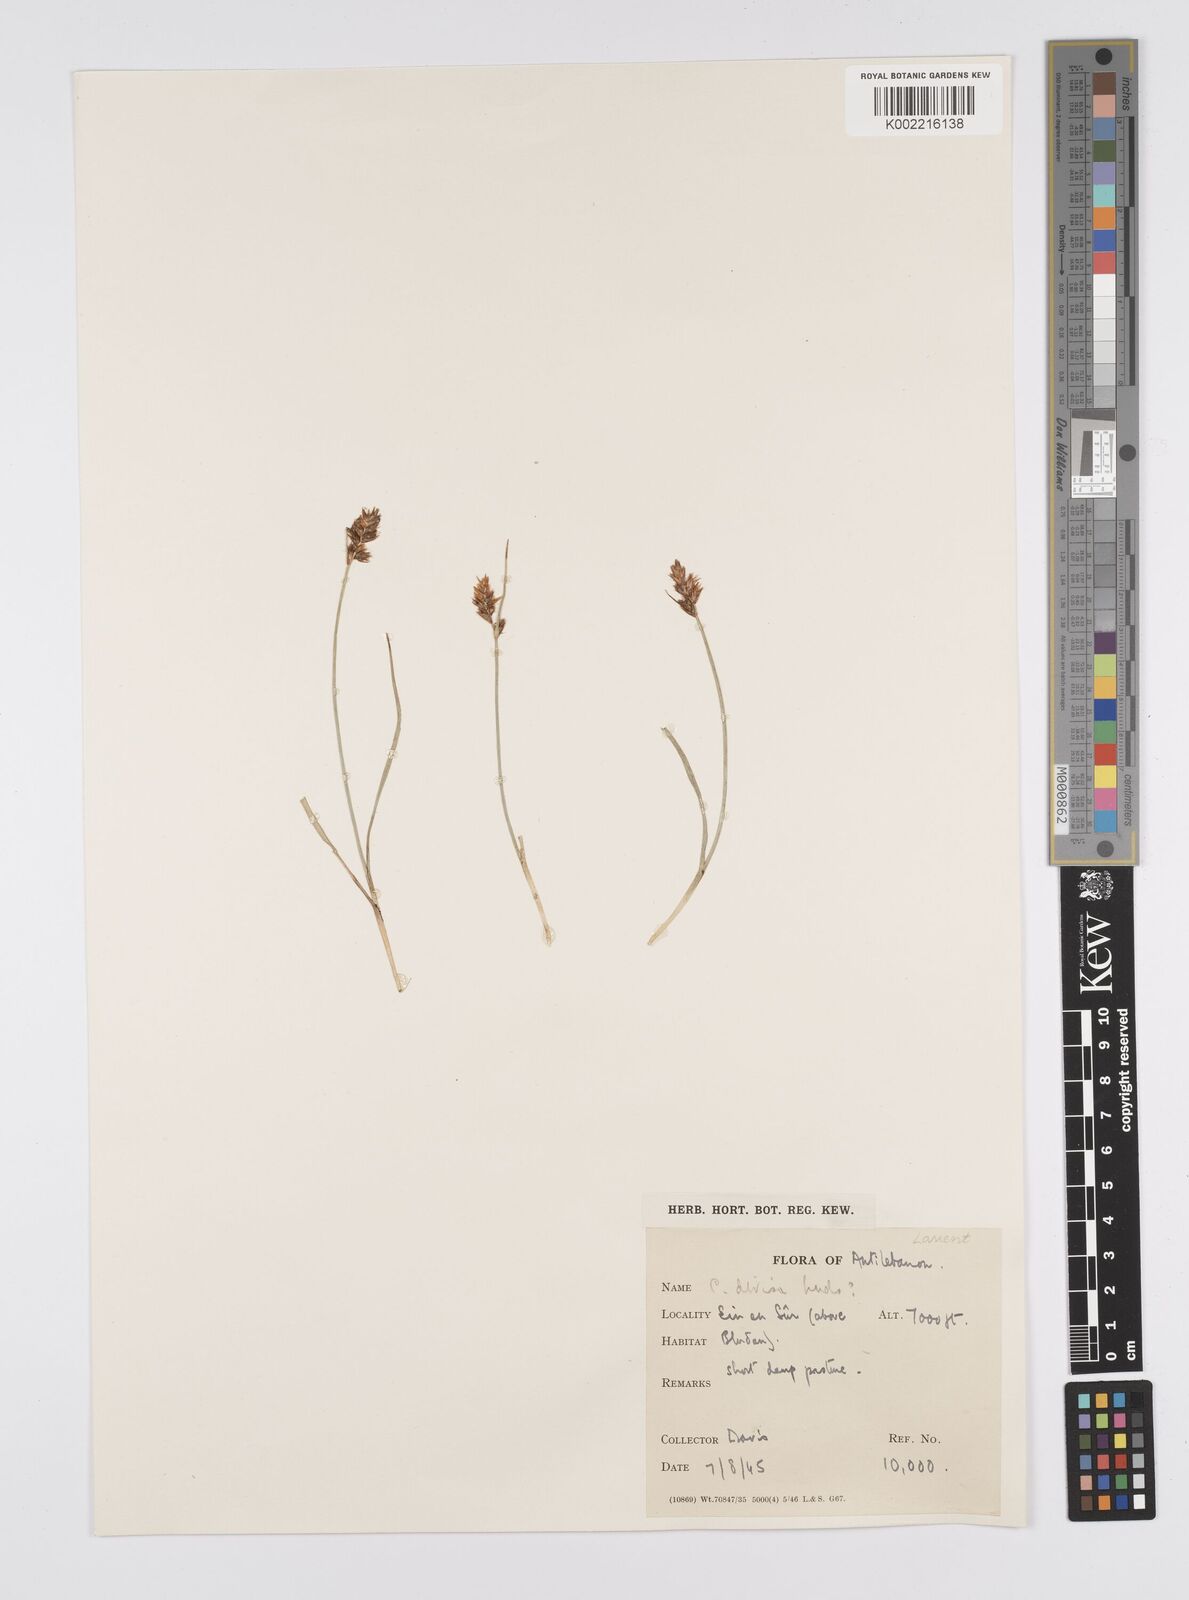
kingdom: Plantae
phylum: Tracheophyta
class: Liliopsida
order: Poales
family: Cyperaceae
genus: Carex
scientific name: Carex divisa
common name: Divided sedge
